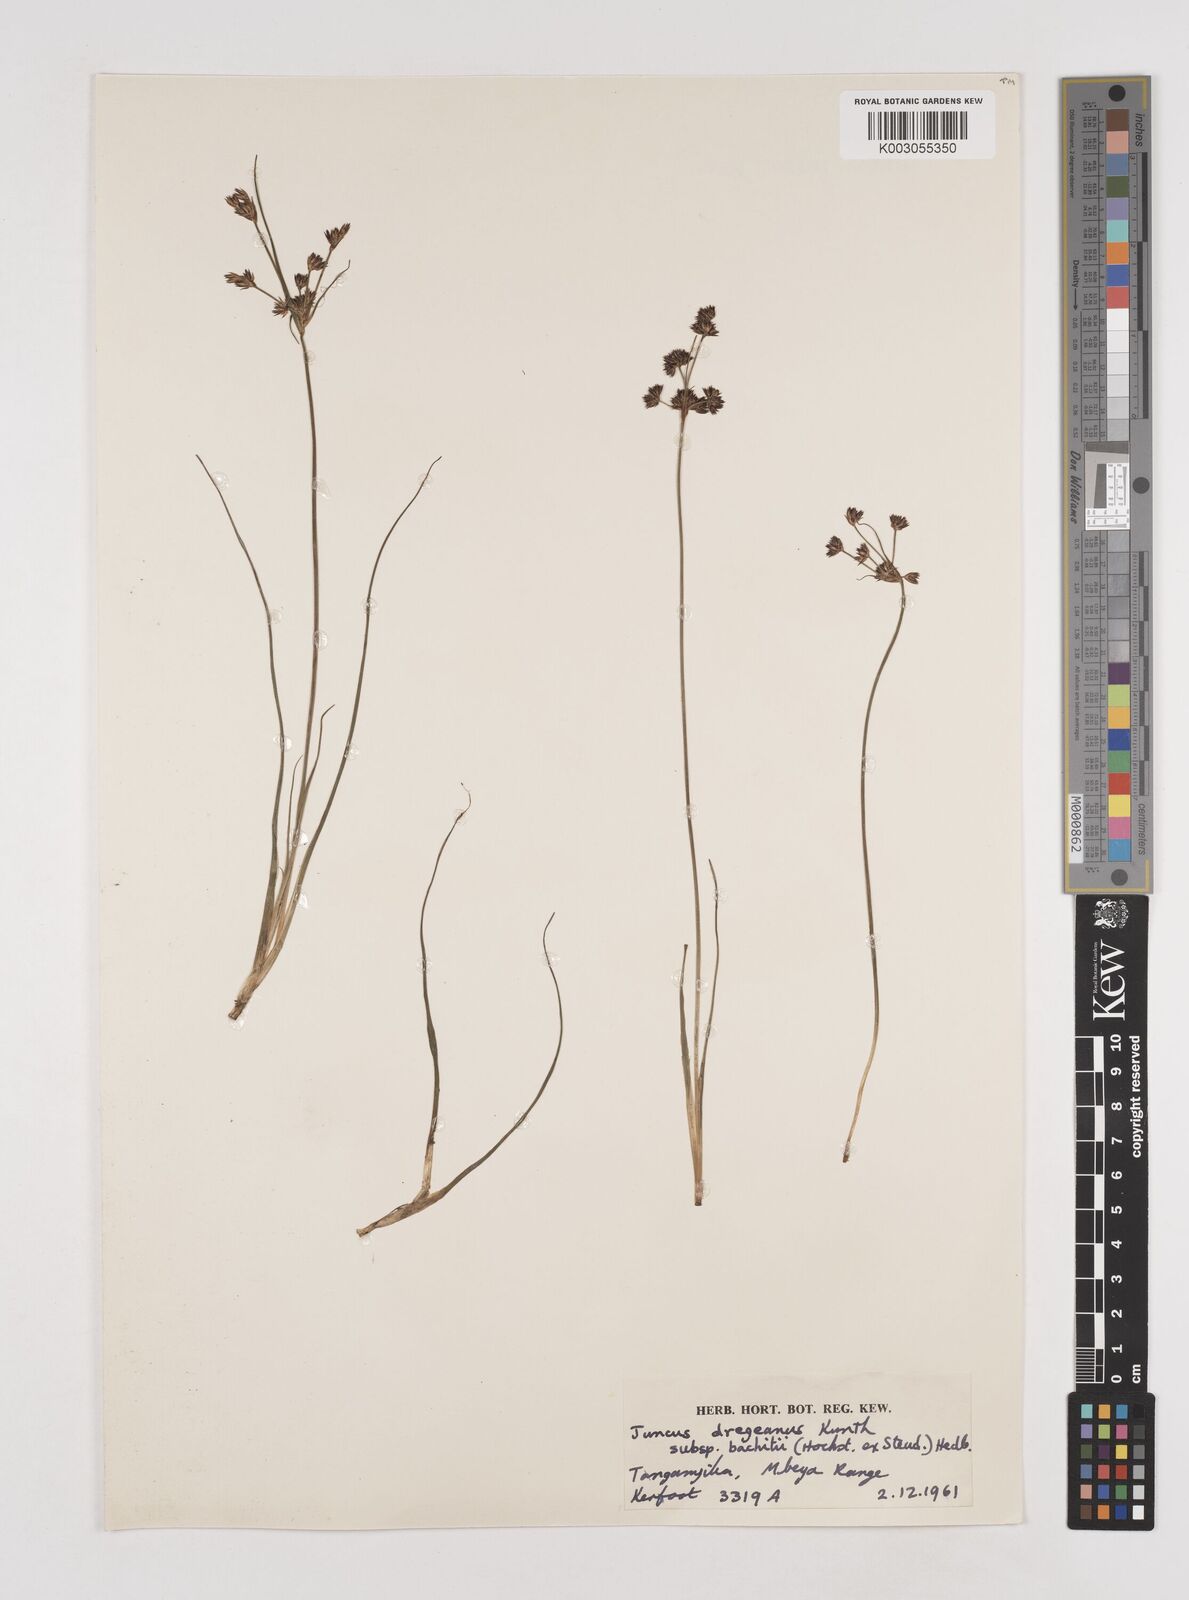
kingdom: Plantae
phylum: Tracheophyta
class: Liliopsida
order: Poales
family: Juncaceae
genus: Juncus
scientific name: Juncus dregeanus
